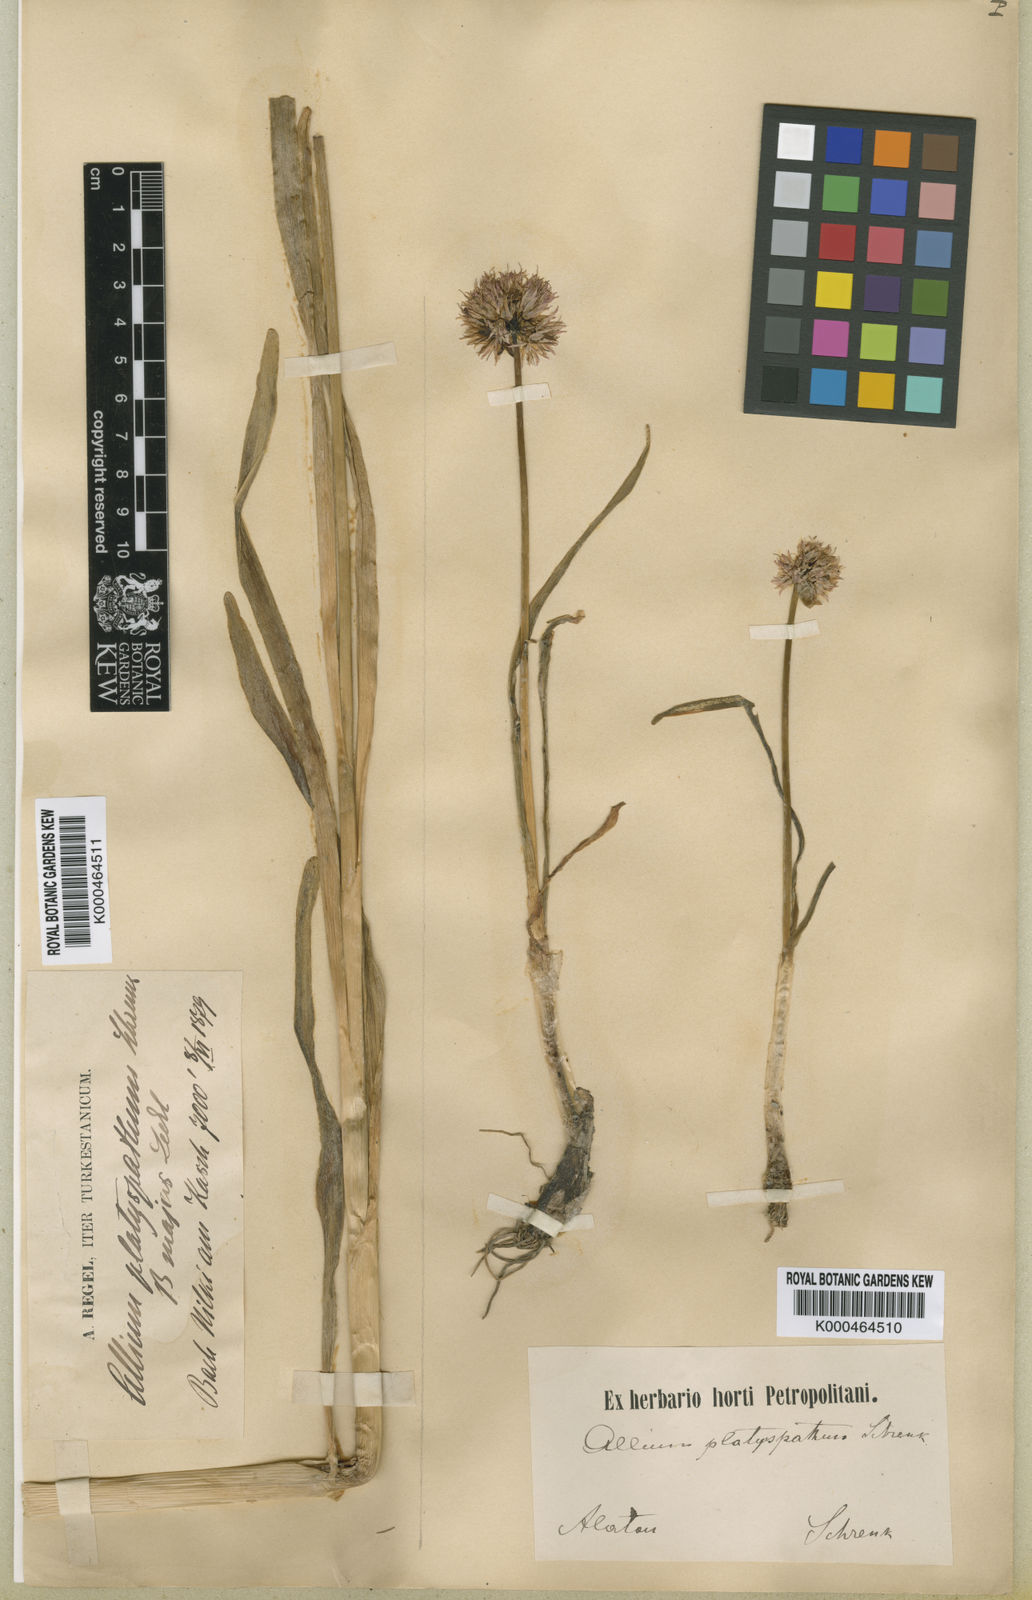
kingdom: Plantae
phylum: Tracheophyta
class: Liliopsida
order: Asparagales
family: Amaryllidaceae
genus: Allium
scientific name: Allium platyspathum
